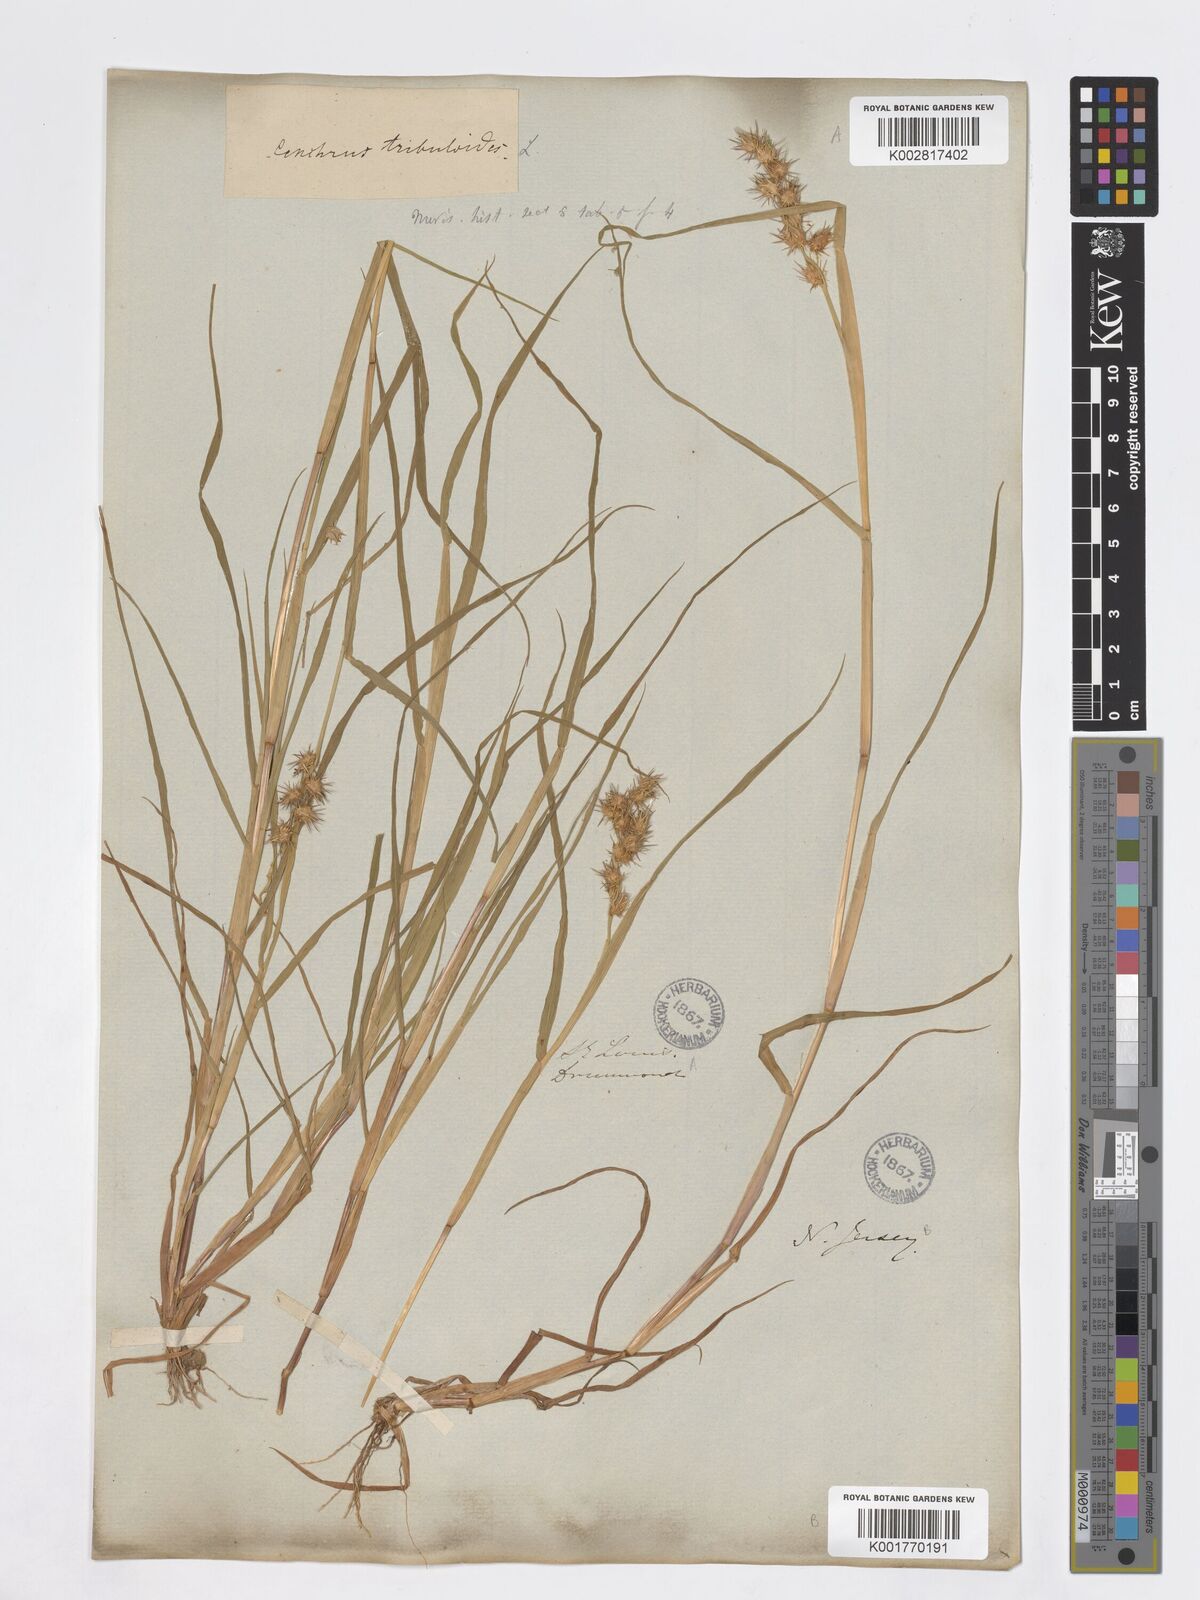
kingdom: Plantae
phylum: Tracheophyta
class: Liliopsida
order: Poales
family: Poaceae
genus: Cenchrus
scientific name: Cenchrus tribuloides
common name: Dune sandbur
